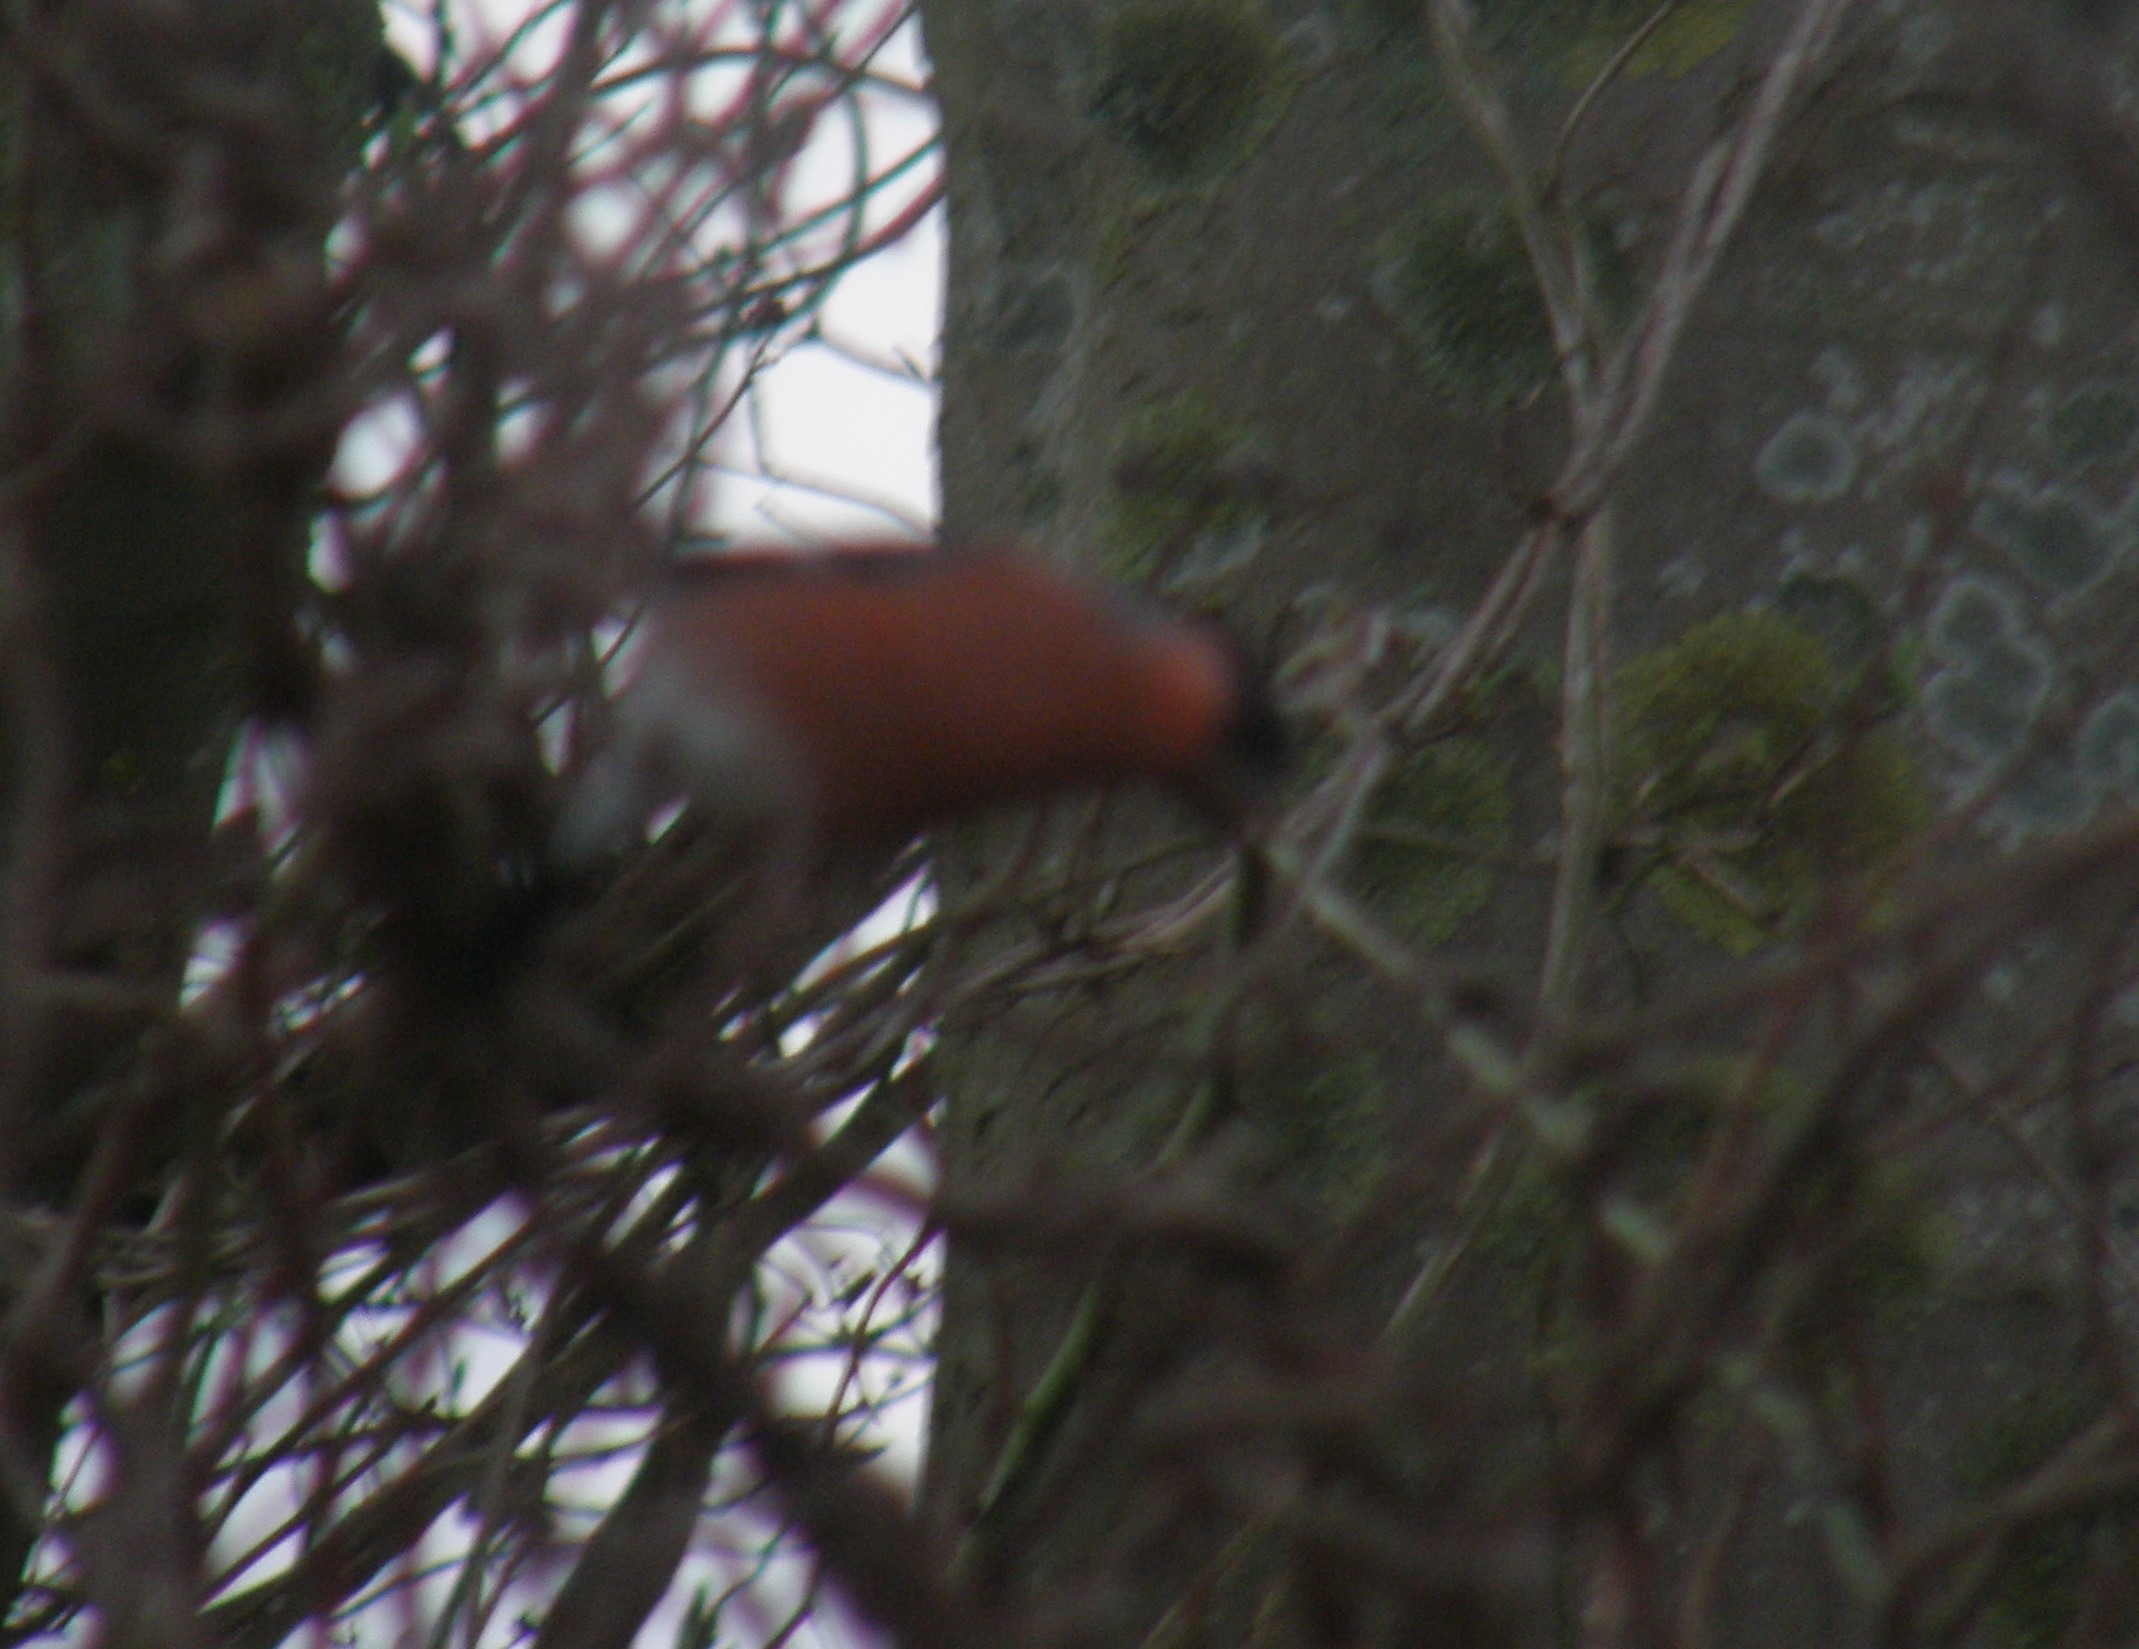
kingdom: Animalia
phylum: Chordata
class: Aves
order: Passeriformes
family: Fringillidae
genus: Pyrrhula
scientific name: Pyrrhula pyrrhula
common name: Dompap
